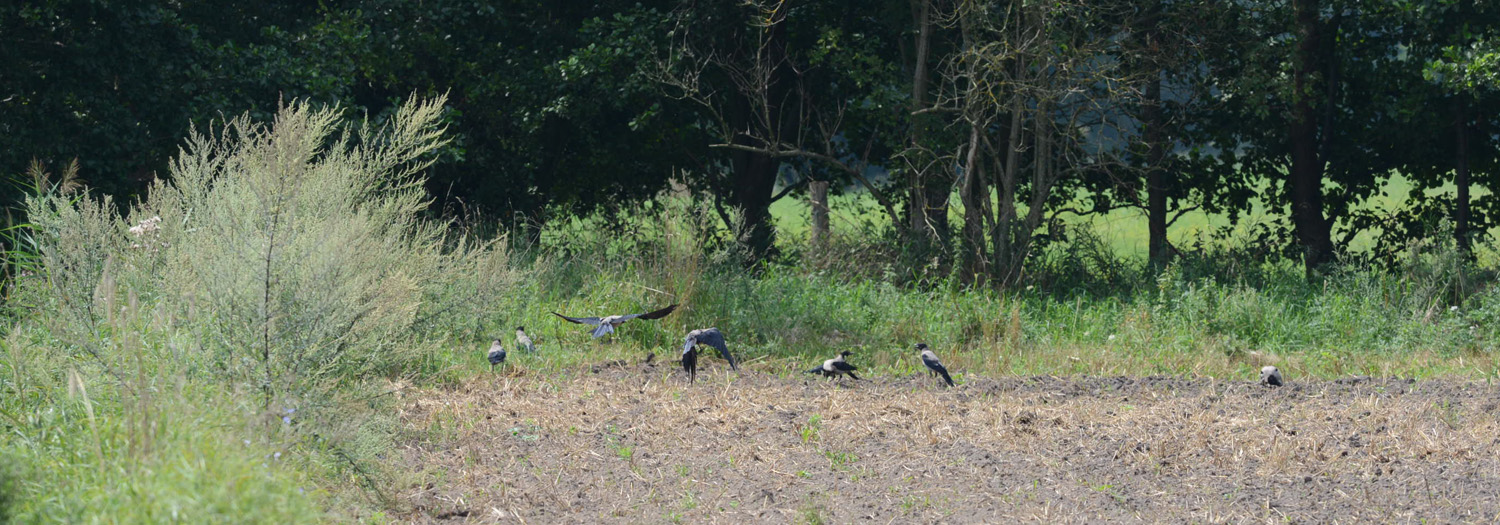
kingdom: Animalia
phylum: Chordata
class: Aves
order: Passeriformes
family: Corvidae
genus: Corvus
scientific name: Corvus cornix
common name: Hooded crow
